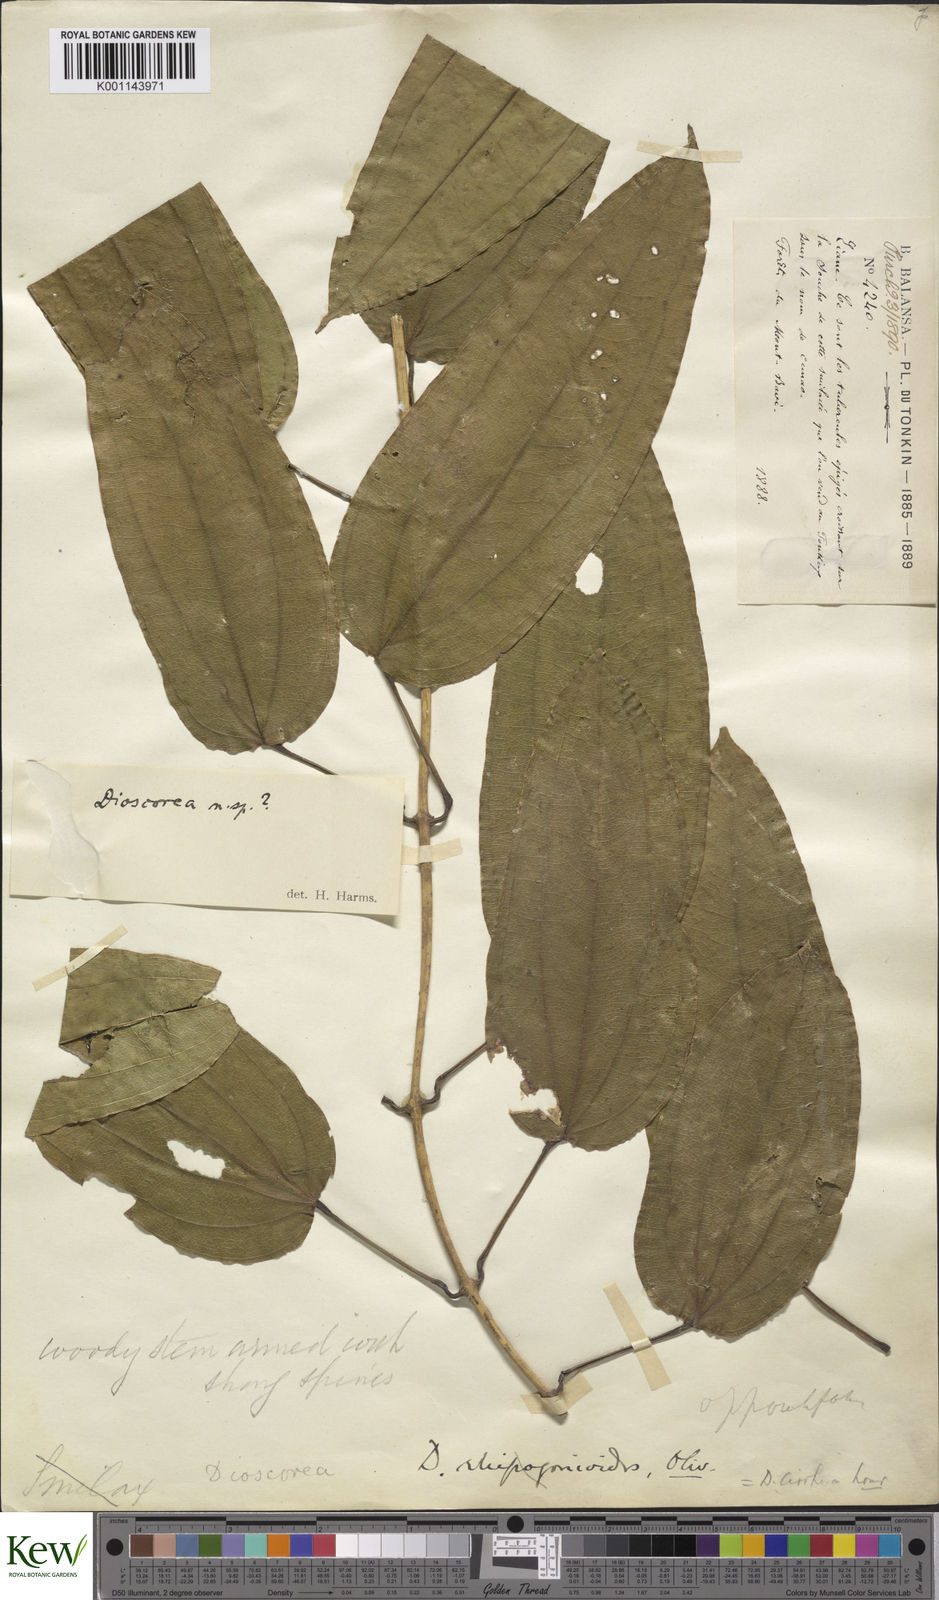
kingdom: Plantae
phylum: Tracheophyta
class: Liliopsida
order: Dioscoreales
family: Dioscoreaceae
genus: Dioscorea
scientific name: Dioscorea cirrhosa
